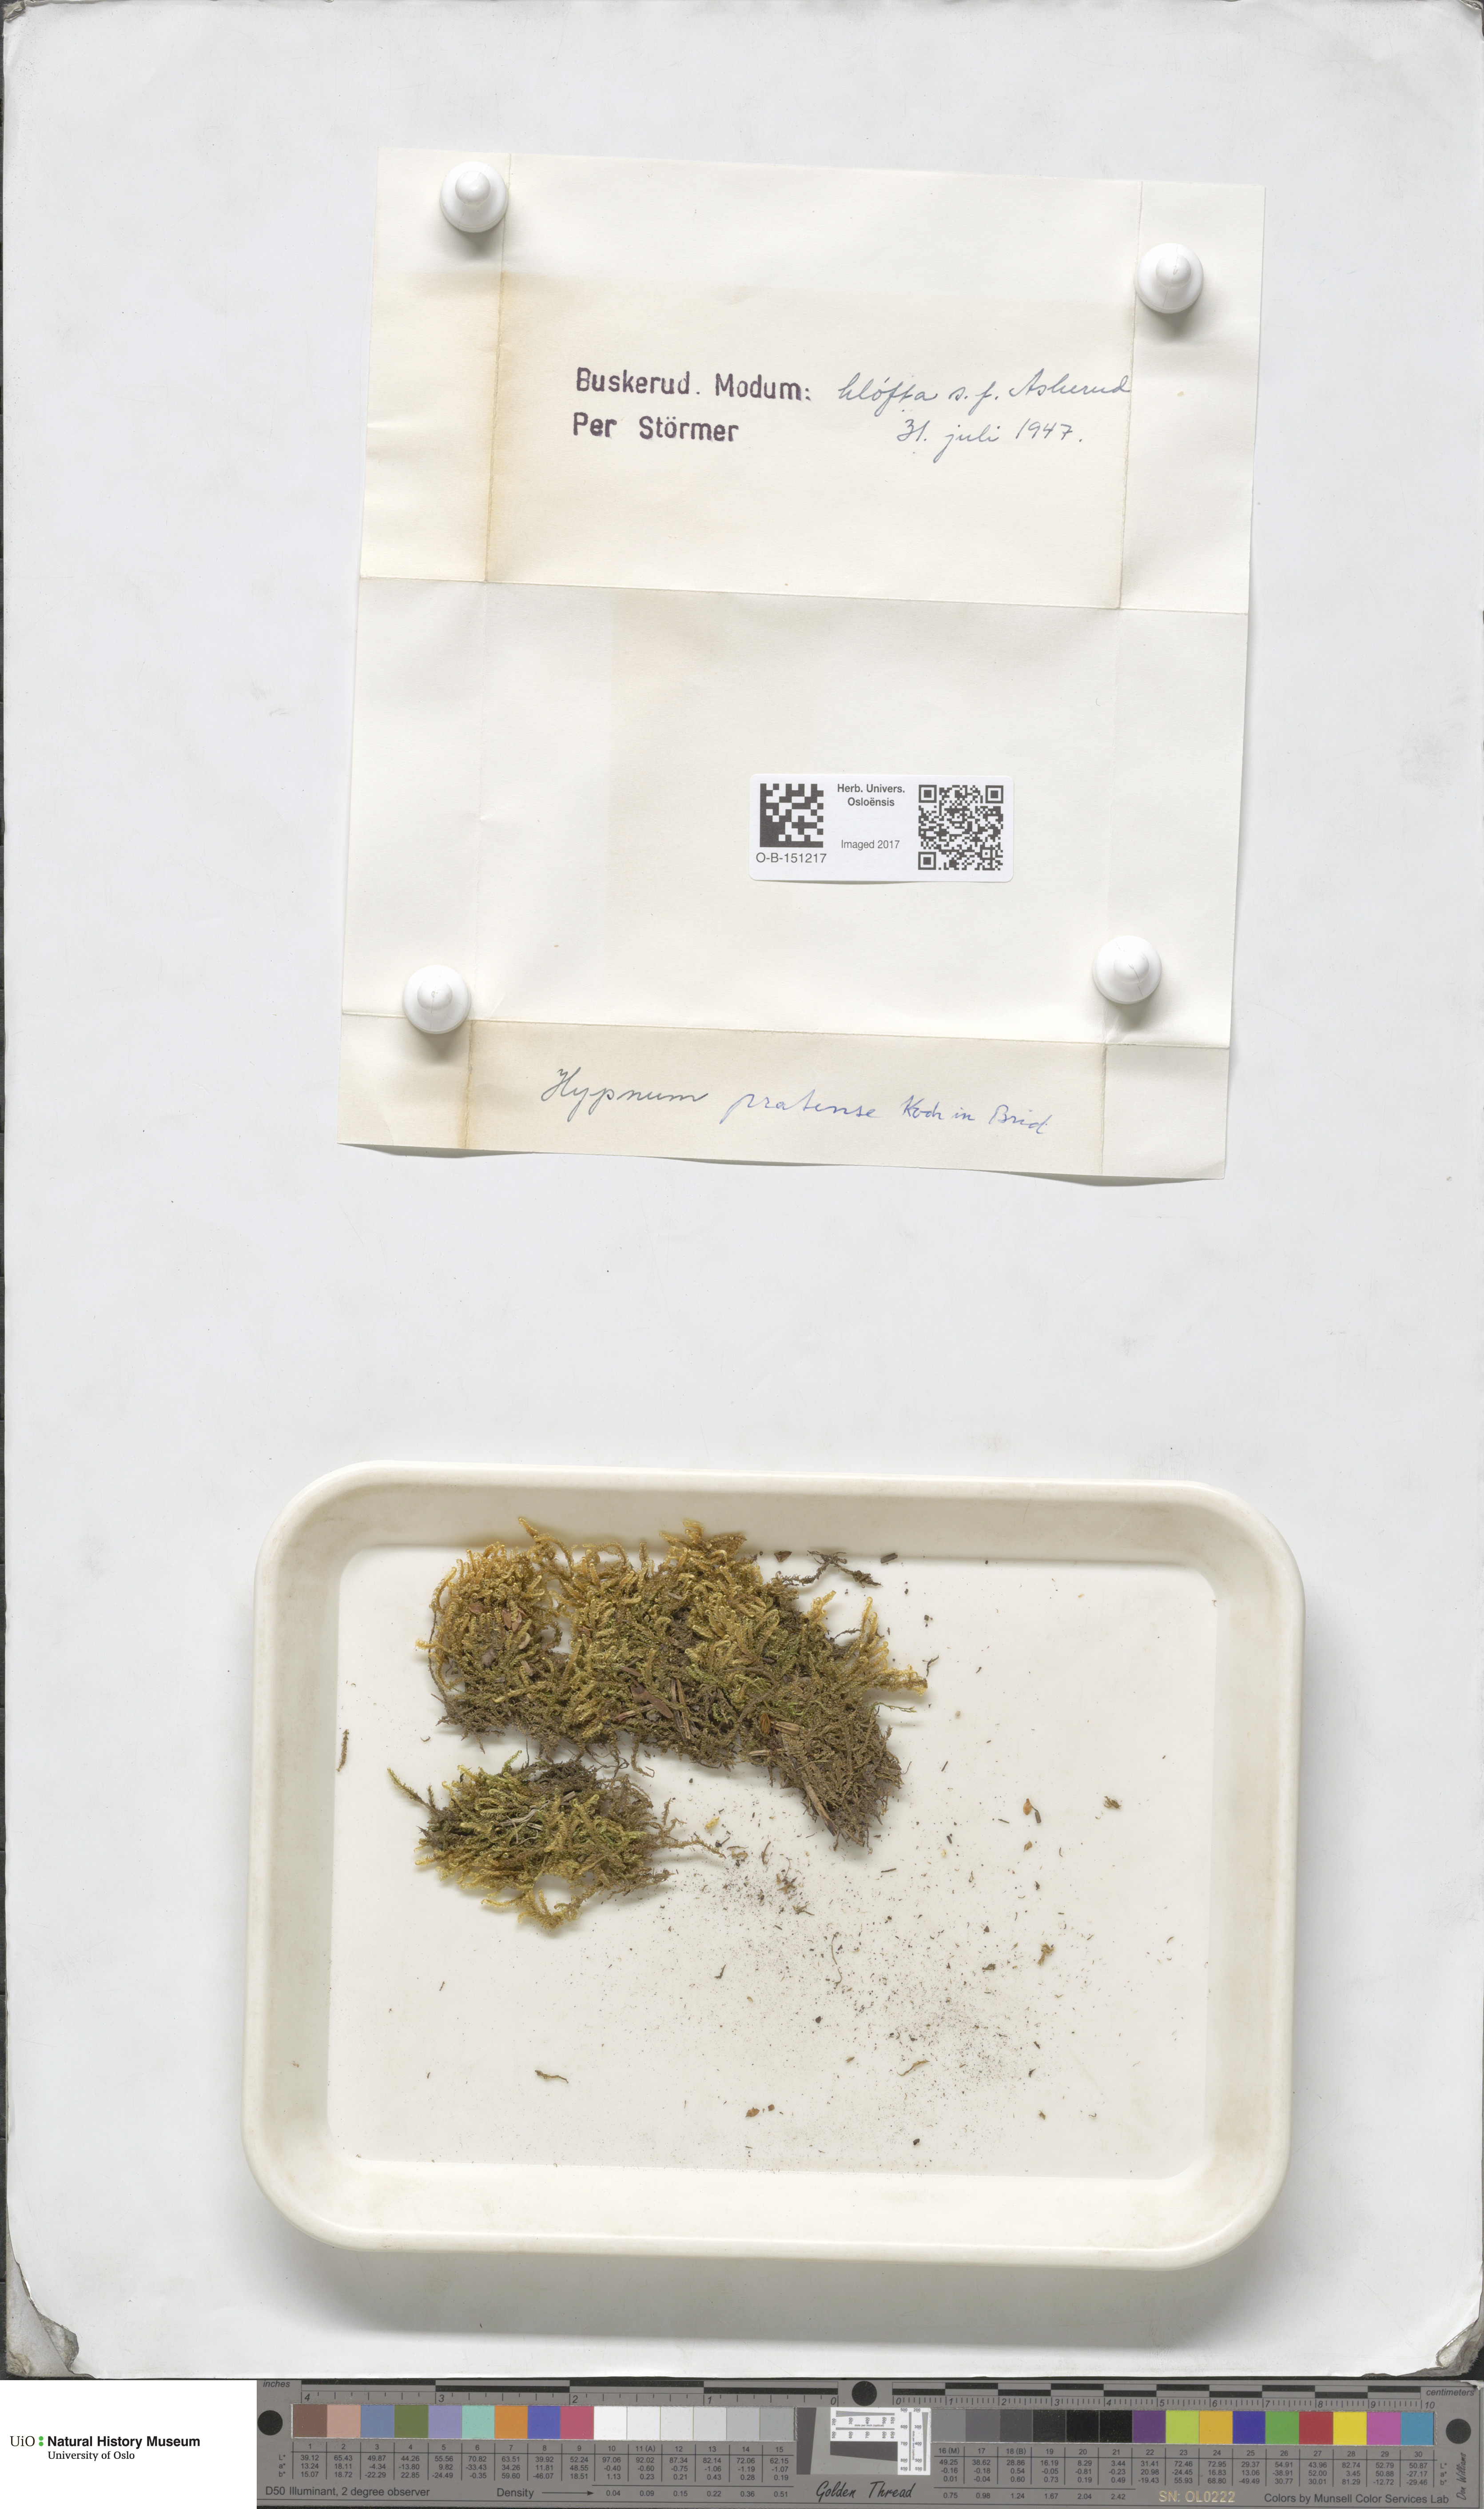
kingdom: Plantae
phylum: Bryophyta
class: Bryopsida
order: Hypnales
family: Stereodontaceae
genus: Stereodon
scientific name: Stereodon pratensis
